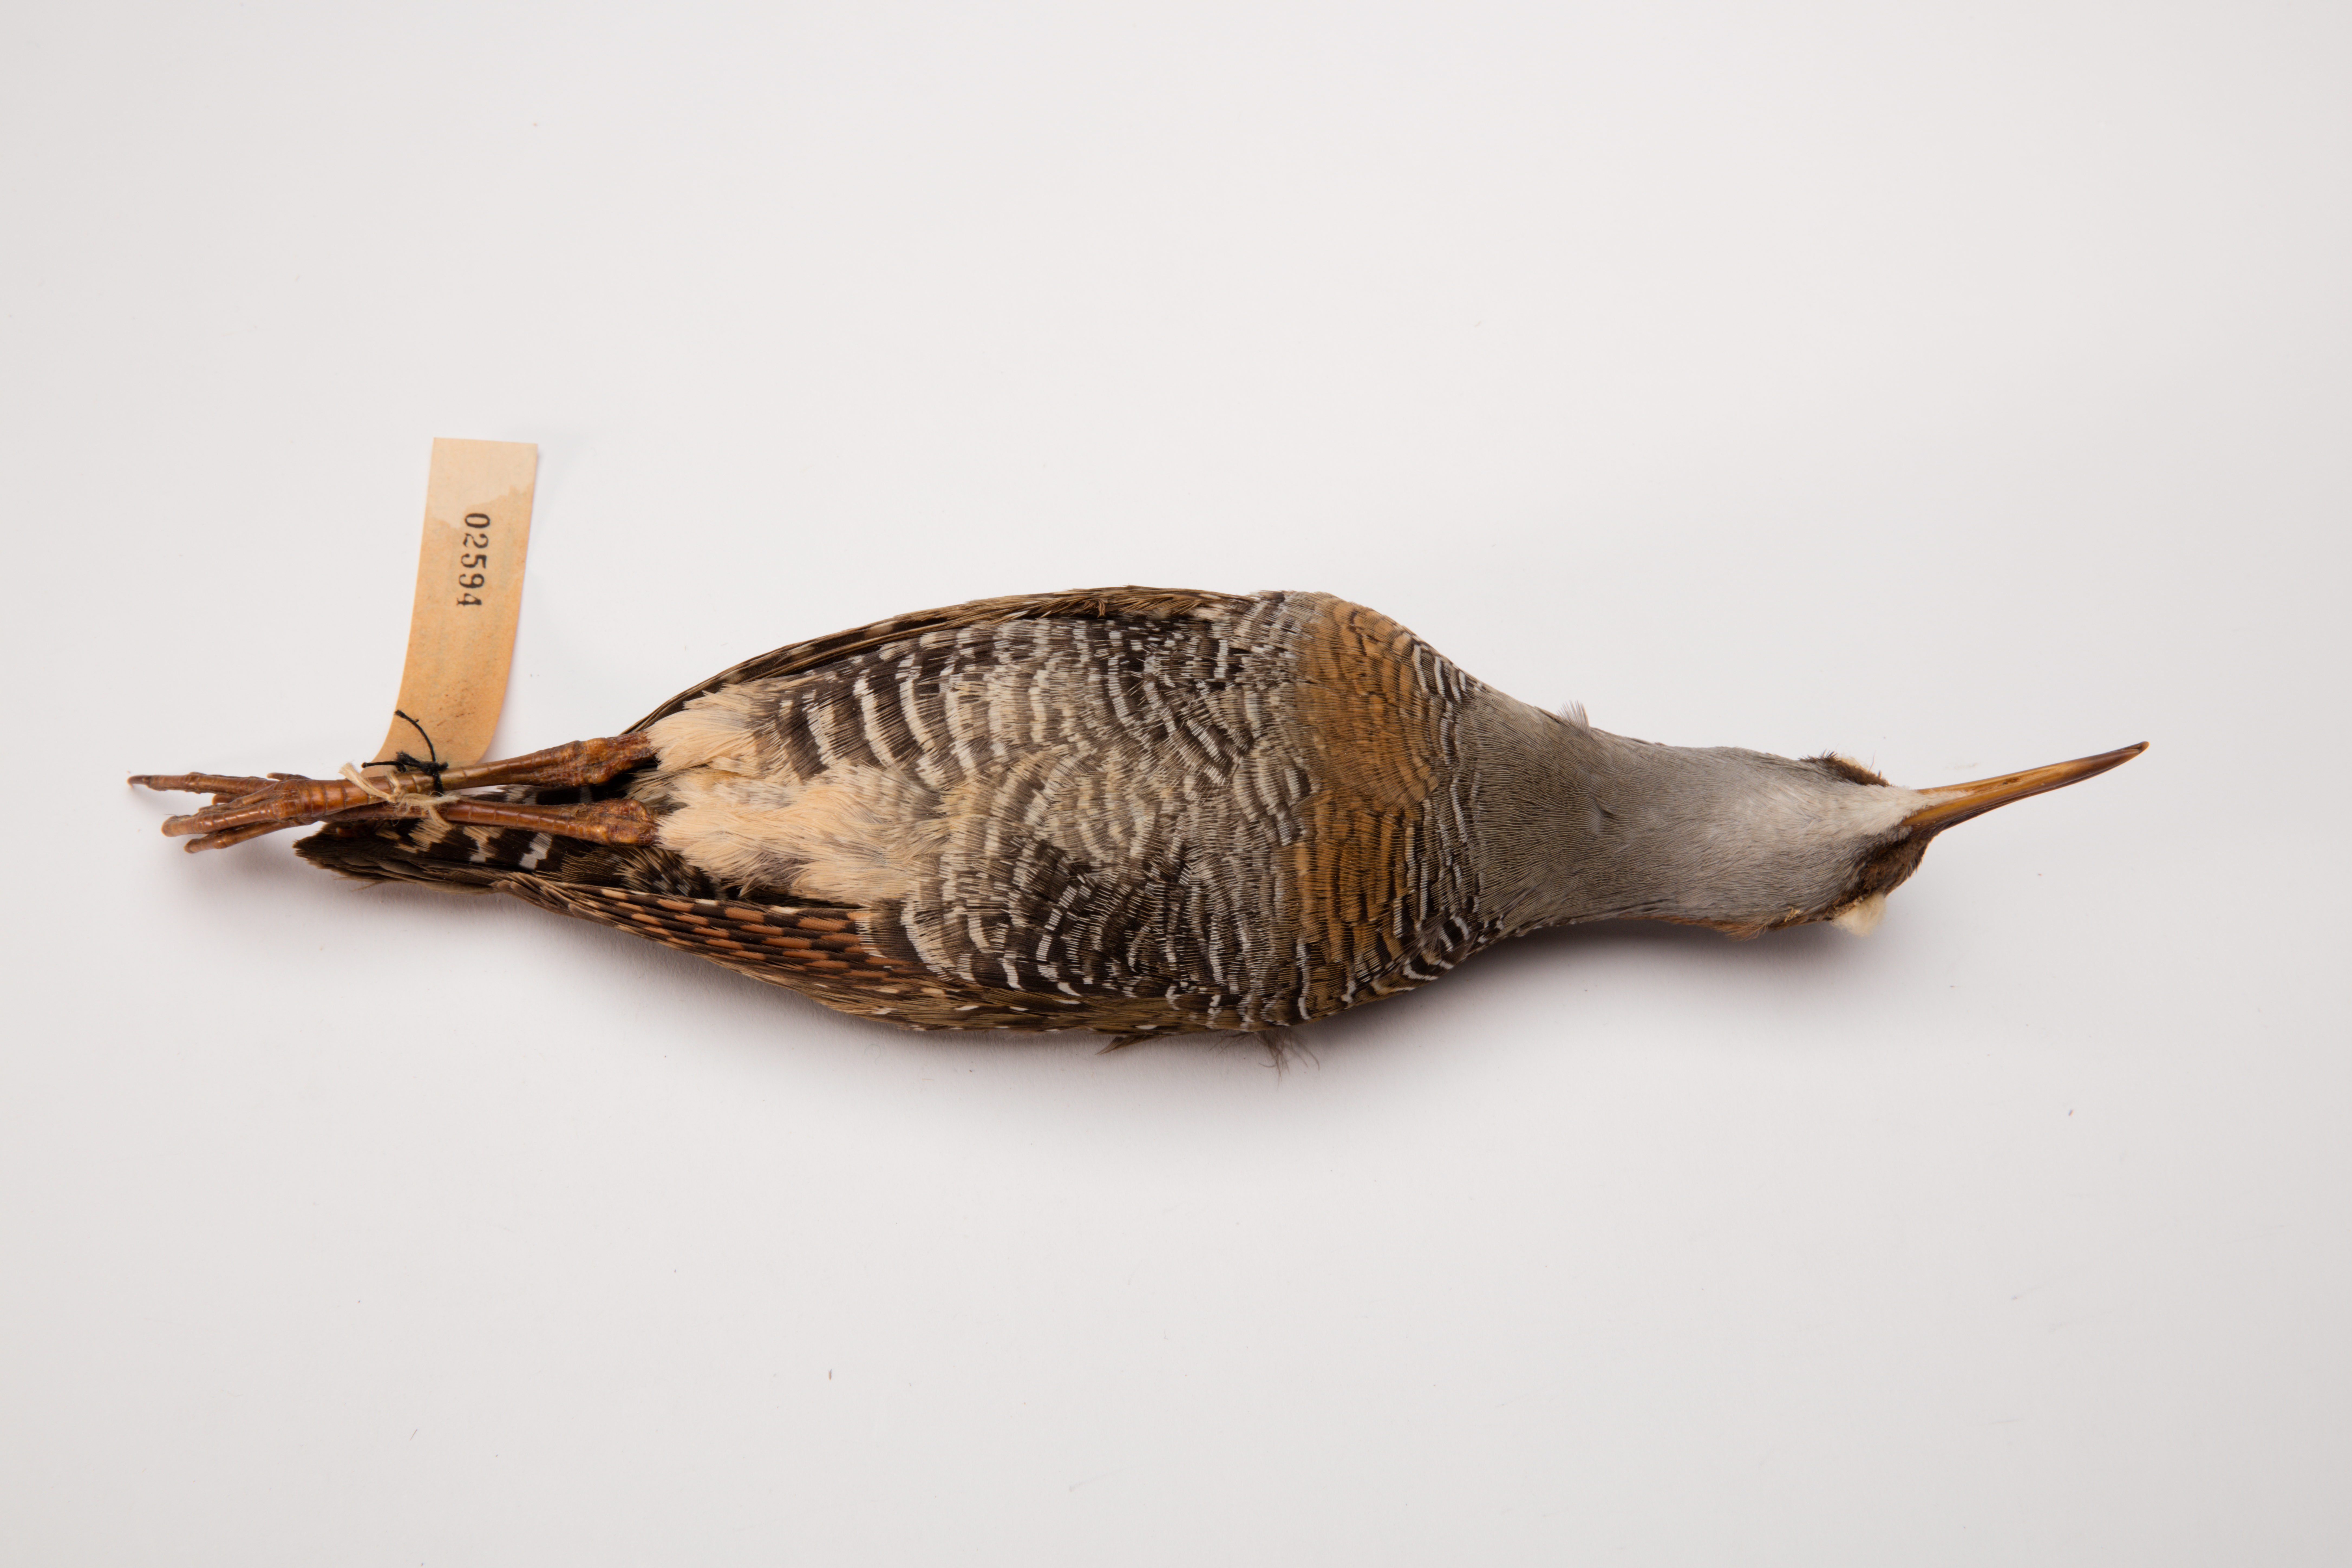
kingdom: Animalia
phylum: Chordata
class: Aves
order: Gruiformes
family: Rallidae
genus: Gallirallus
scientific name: Gallirallus philippensis
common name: Buff-banded rail
